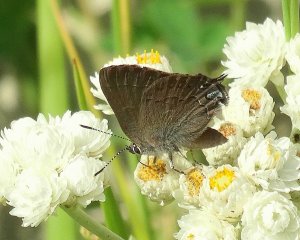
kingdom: Animalia
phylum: Arthropoda
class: Insecta
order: Lepidoptera
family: Lycaenidae
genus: Strymon
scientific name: Strymon saepium
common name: Hedgerow Hairstreak
